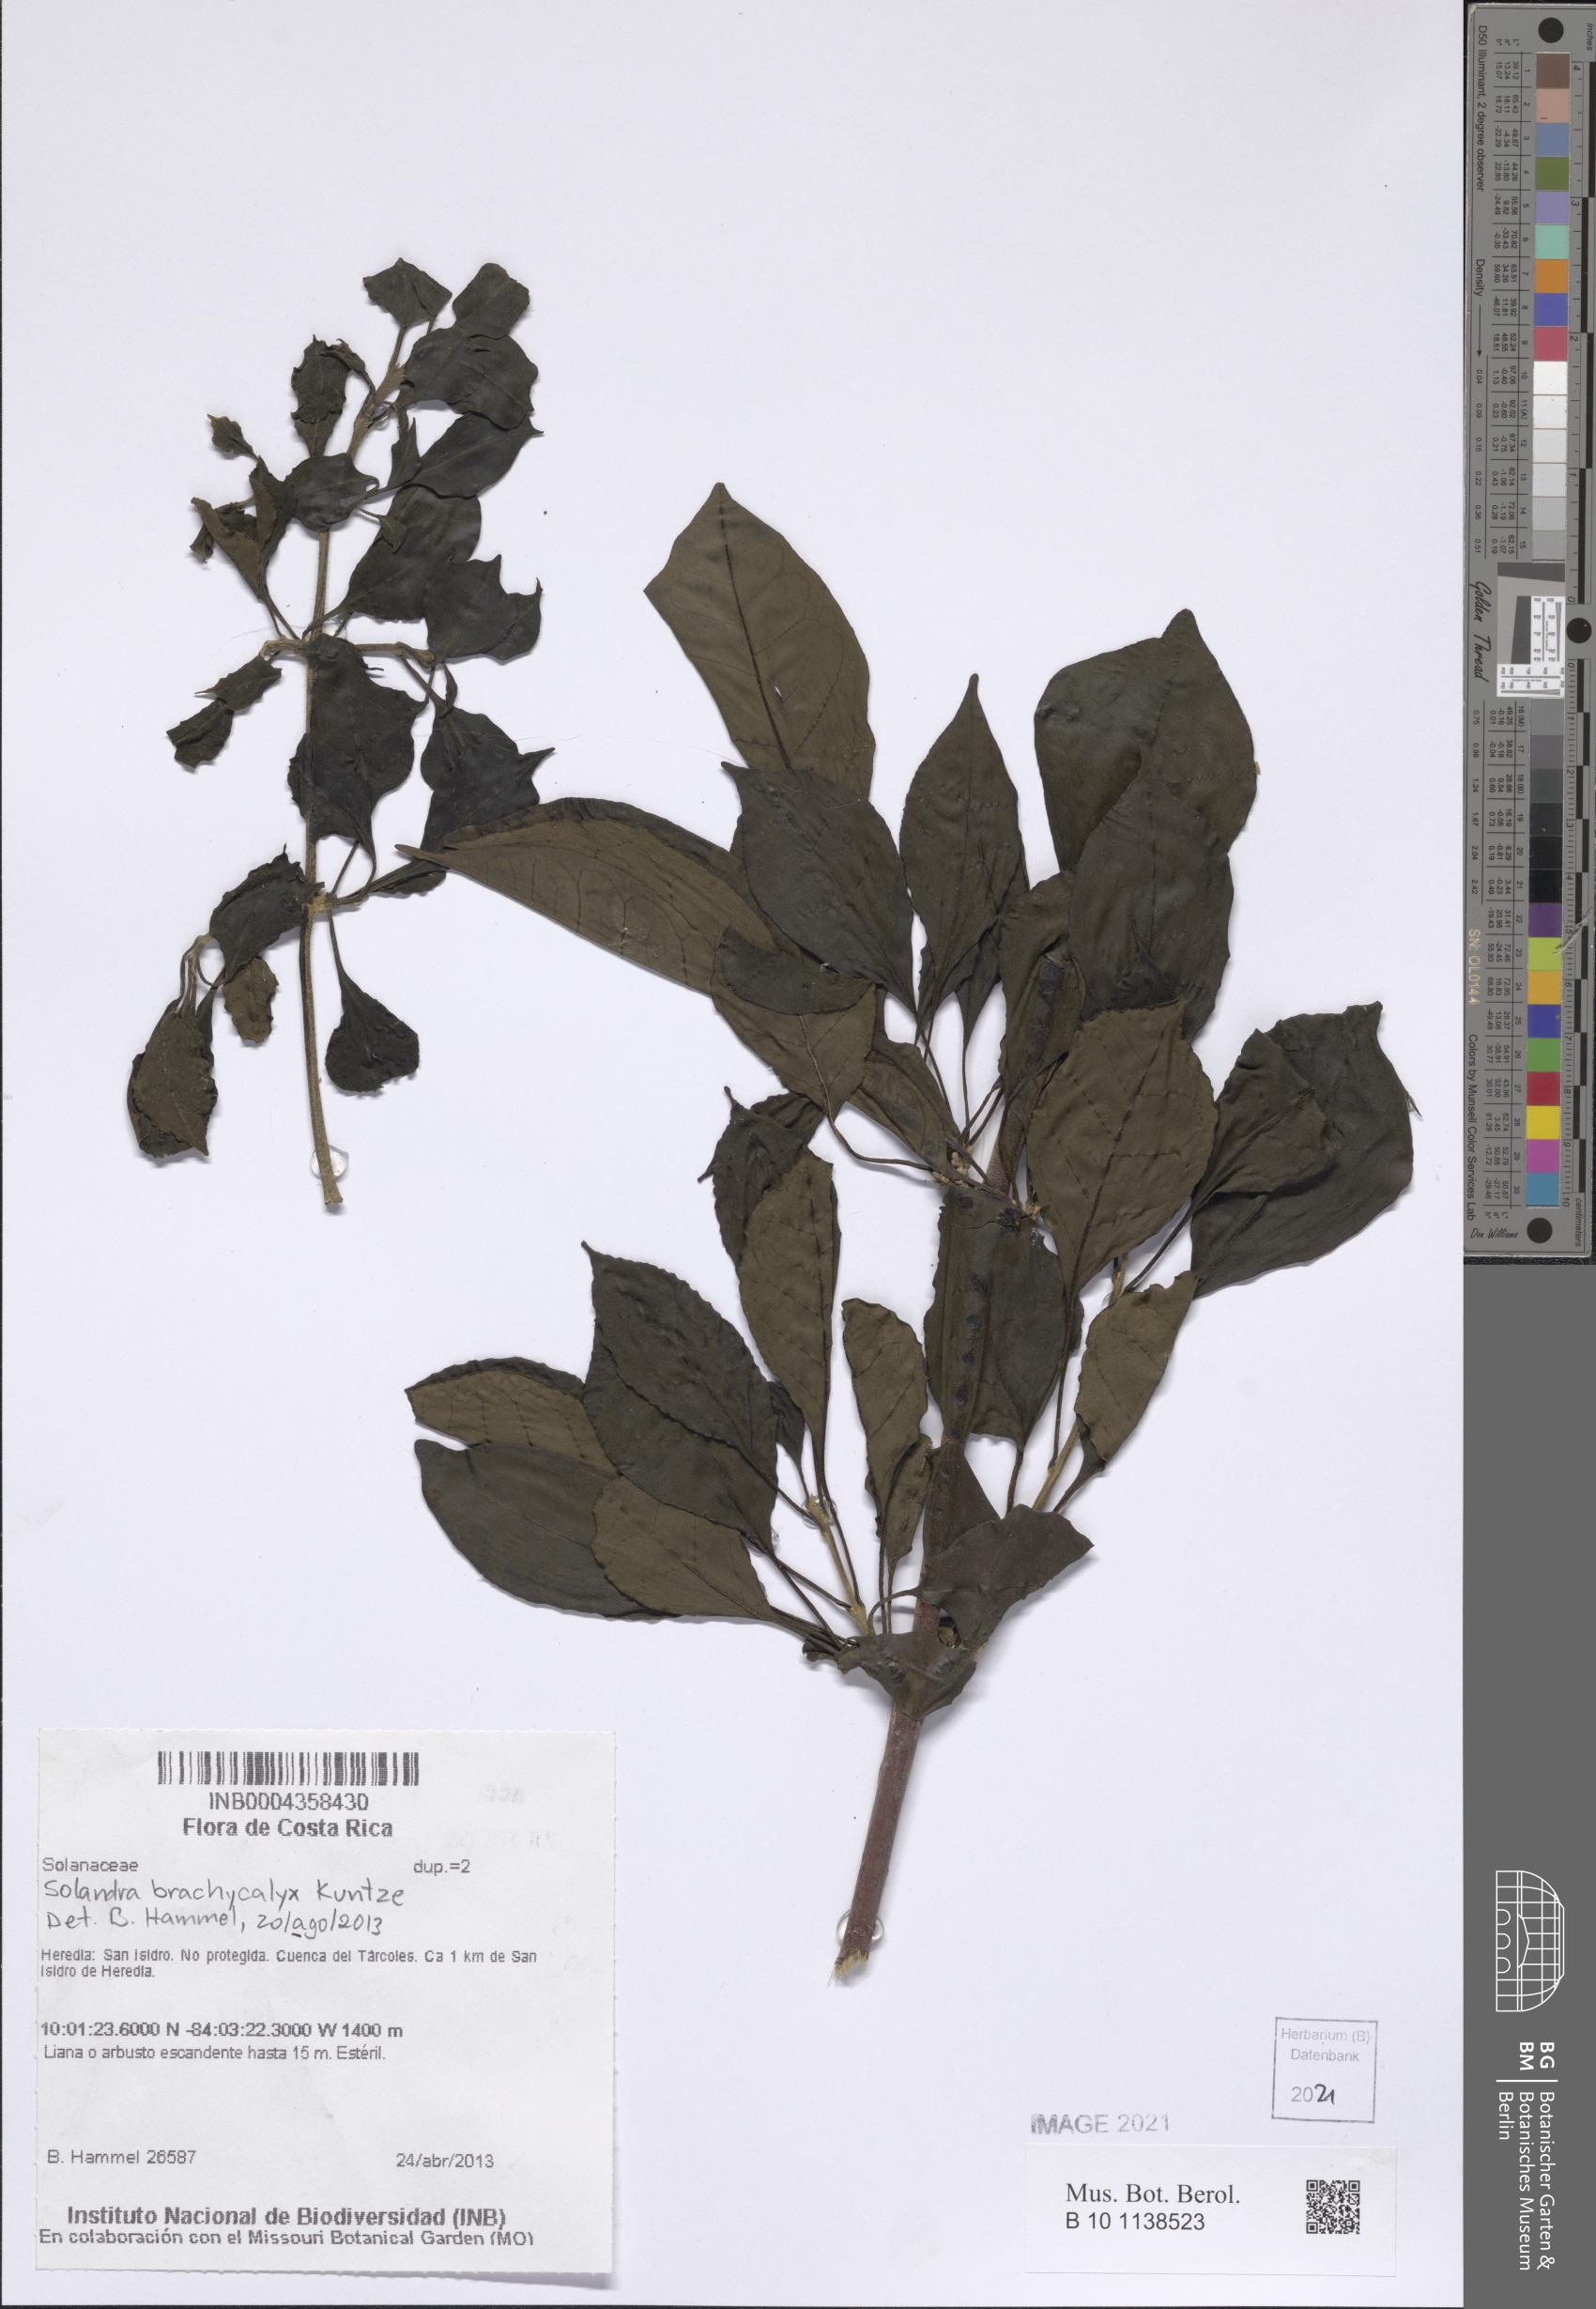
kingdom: Plantae
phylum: Tracheophyta
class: Magnoliopsida
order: Solanales
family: Solanaceae
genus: Solandra
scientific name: Solandra brachycalyx
